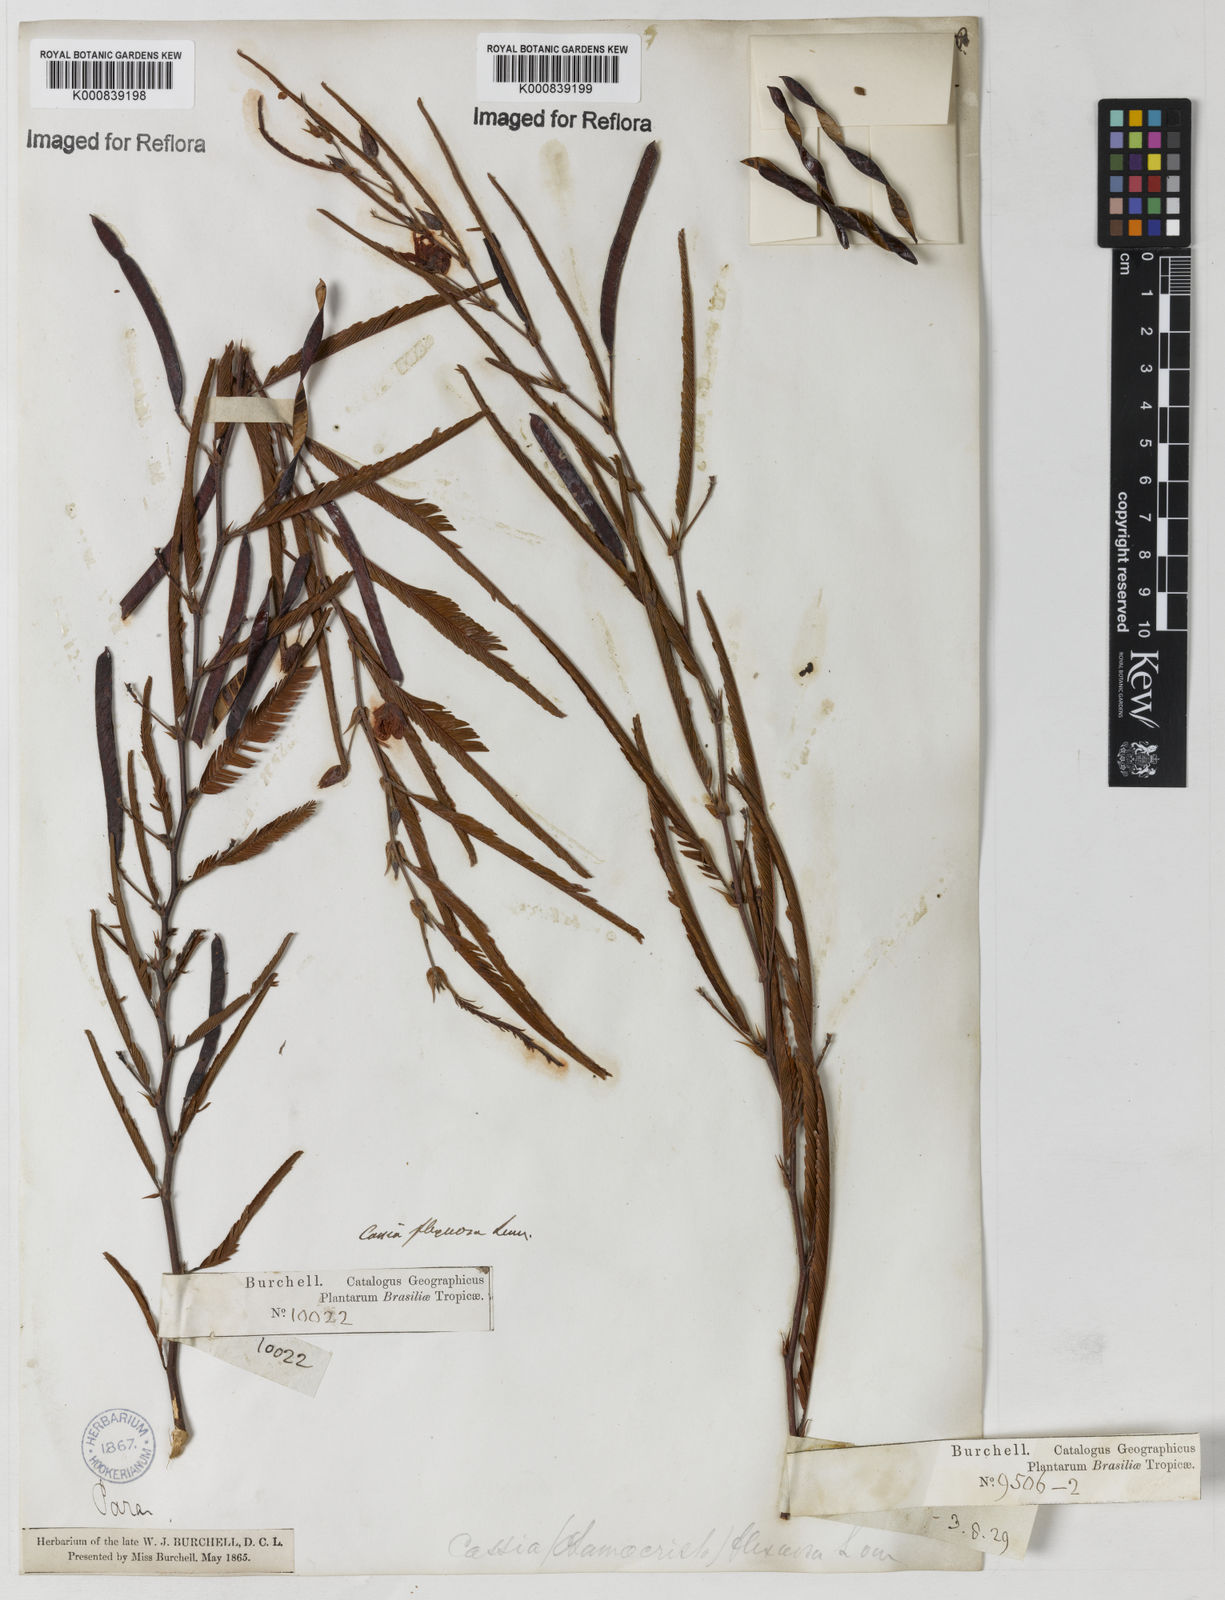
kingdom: Plantae
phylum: Tracheophyta
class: Magnoliopsida
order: Fabales
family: Fabaceae
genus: Chamaecrista
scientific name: Chamaecrista flexuosa
